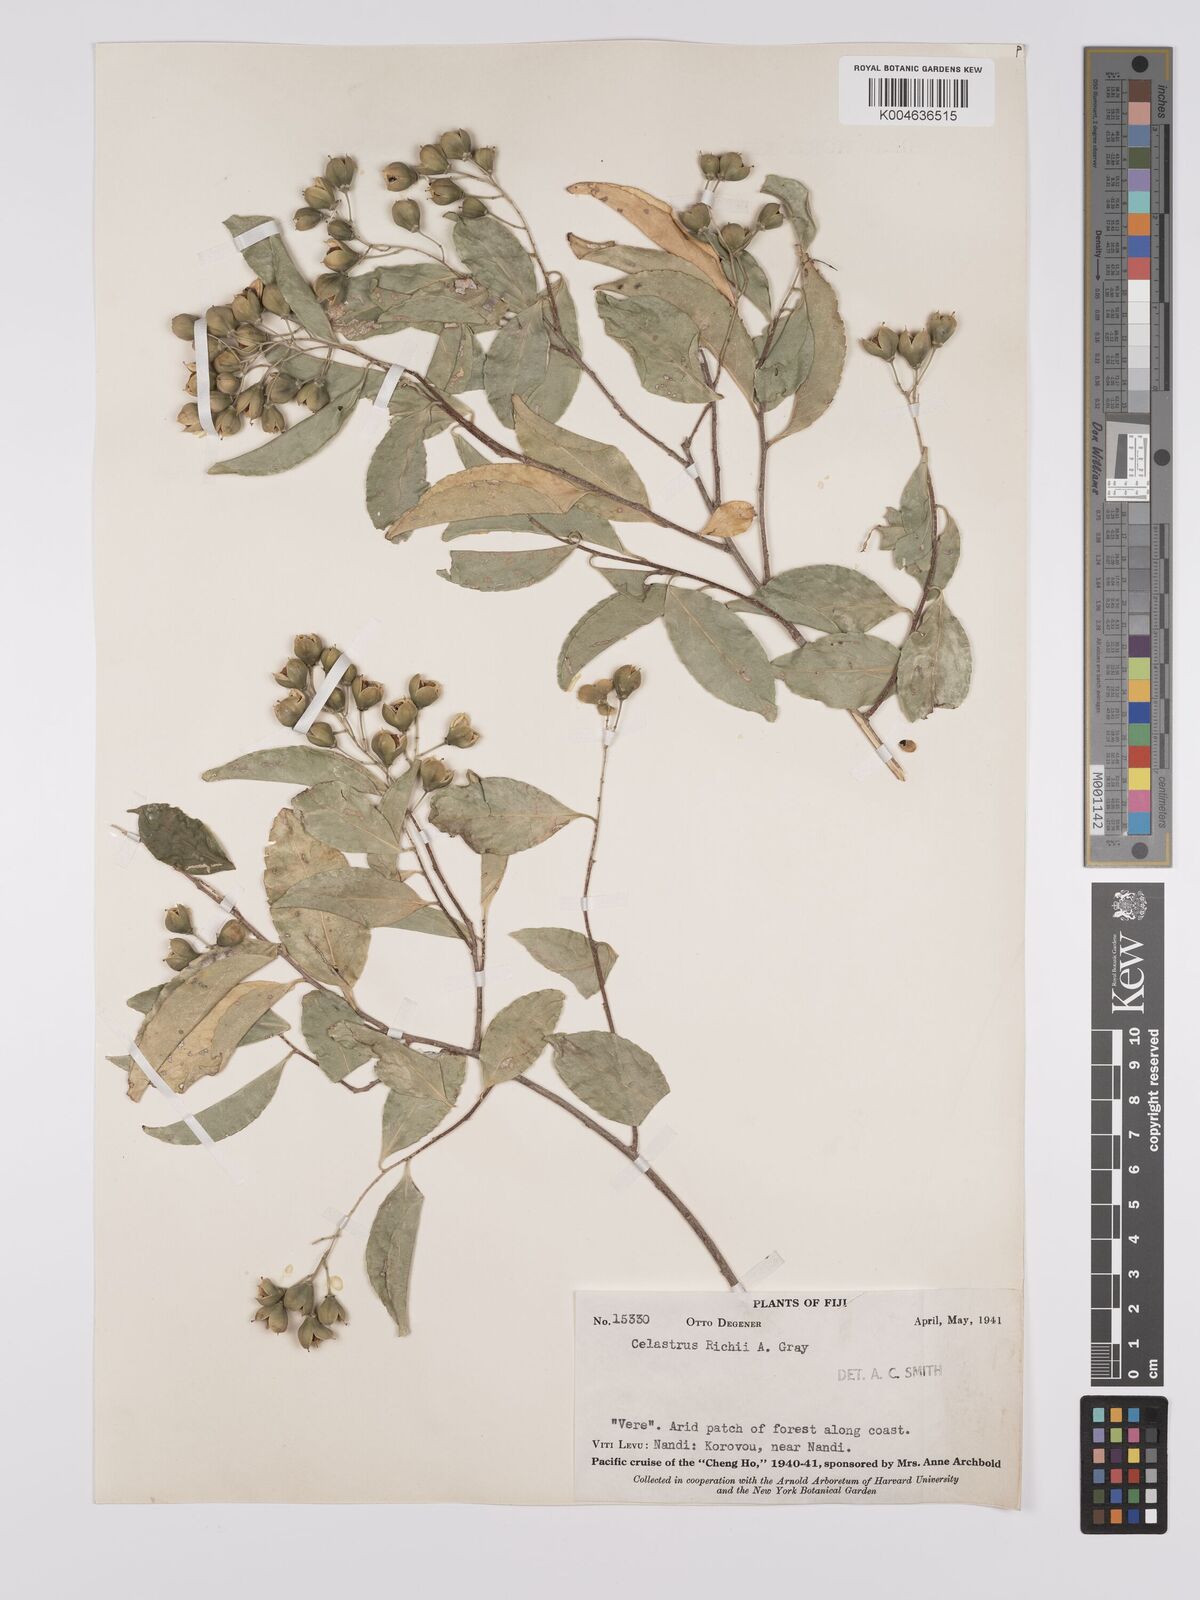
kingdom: Plantae
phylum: Tracheophyta
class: Magnoliopsida
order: Celastrales
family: Celastraceae
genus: Celastrus
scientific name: Celastrus richii
